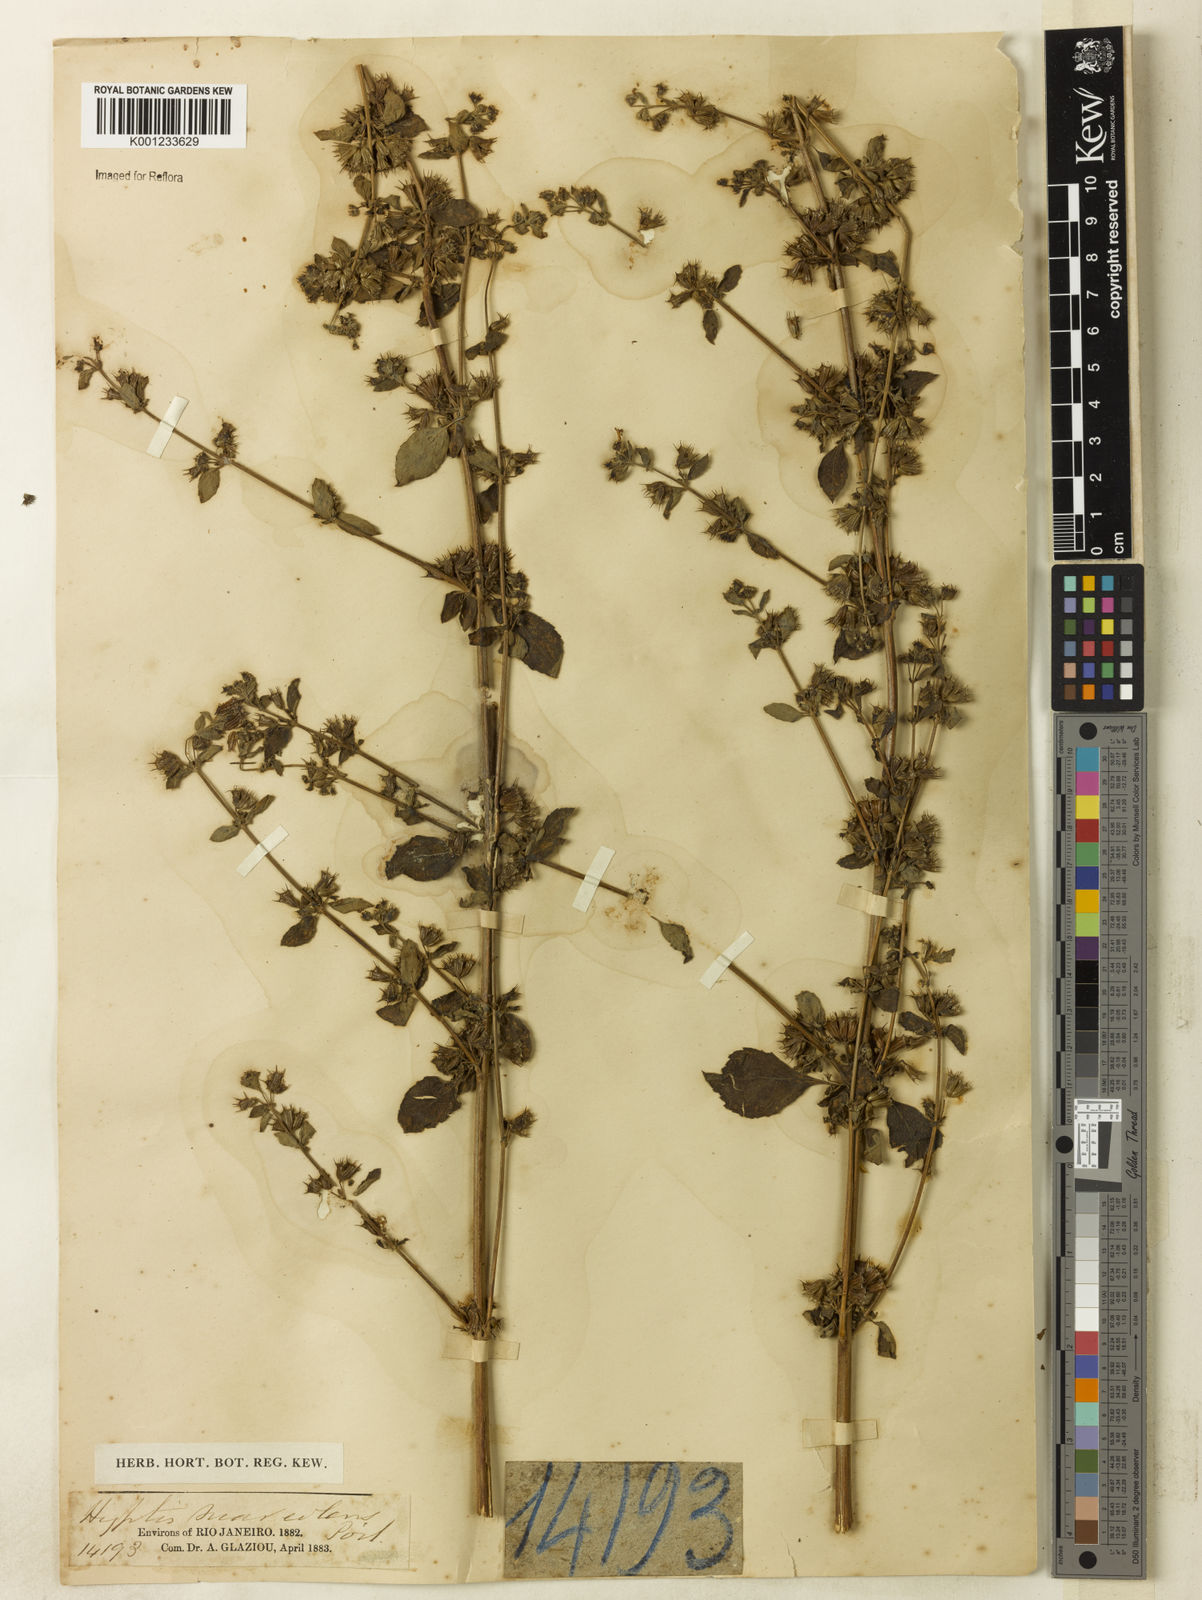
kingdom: Plantae
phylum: Tracheophyta
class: Magnoliopsida
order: Lamiales
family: Lamiaceae
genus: Mesosphaerum
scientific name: Mesosphaerum suaveolens
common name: Pignut
